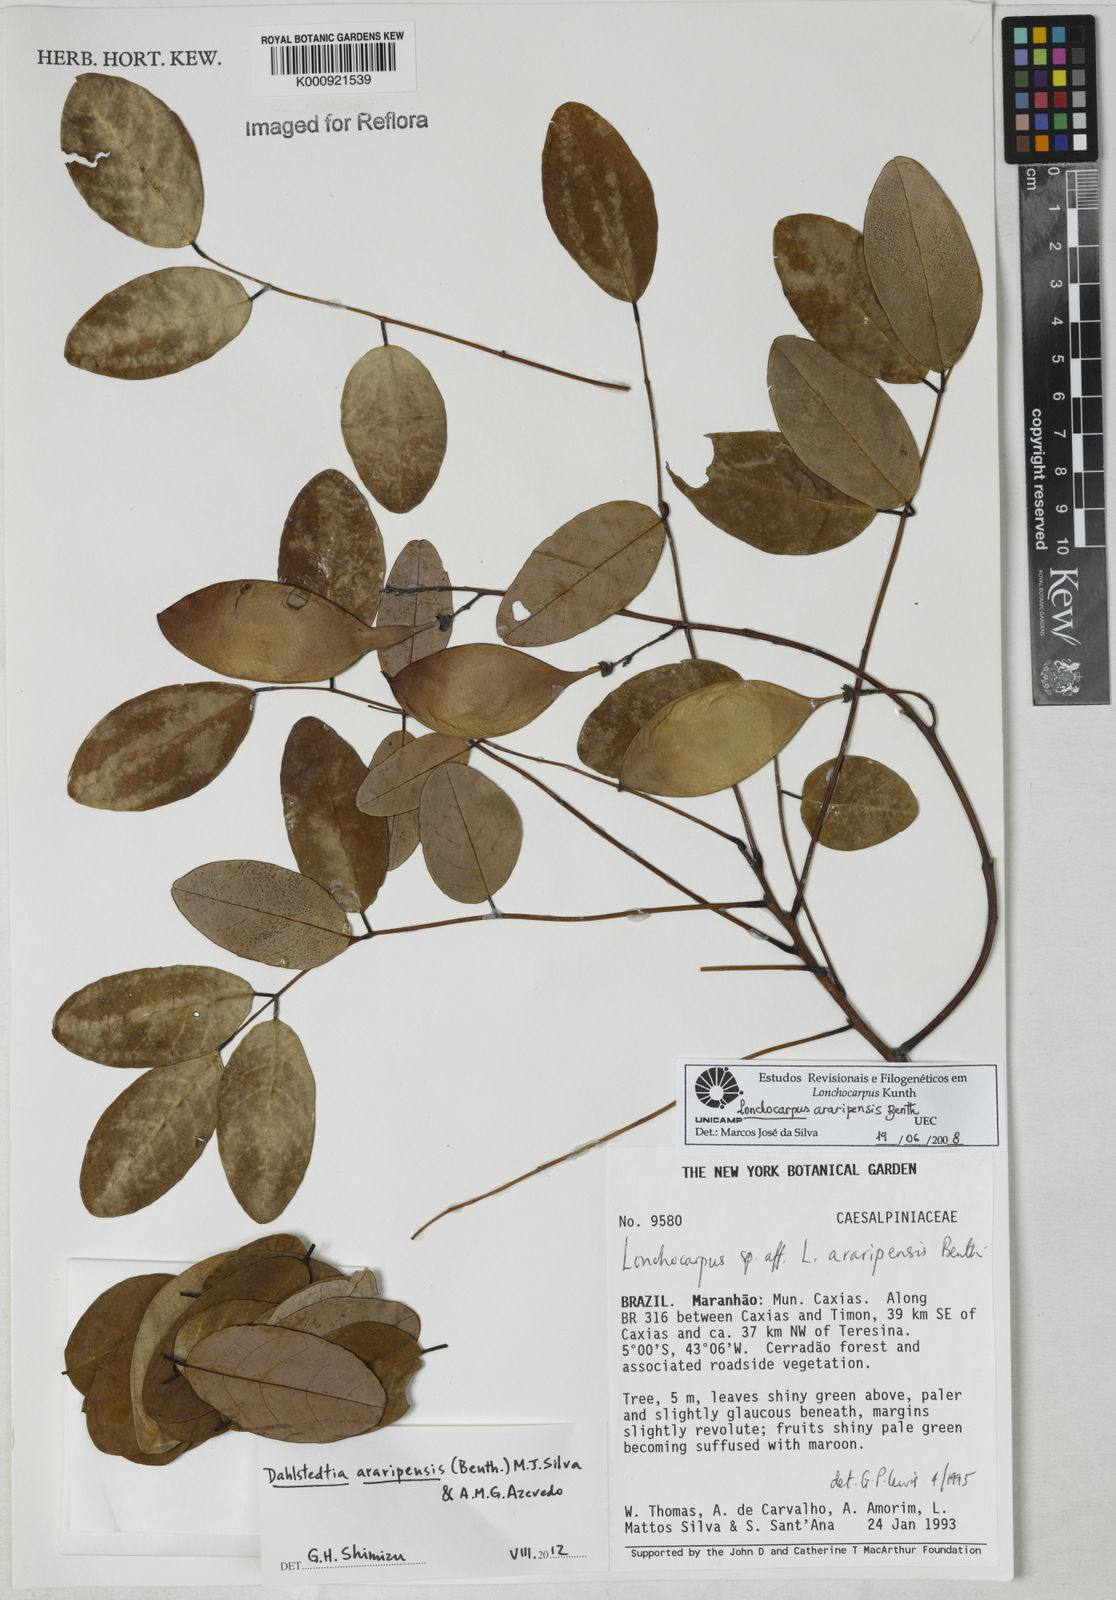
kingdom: Plantae
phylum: Tracheophyta
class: Magnoliopsida
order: Fabales
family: Fabaceae
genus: Dahlstedtia
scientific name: Dahlstedtia araripensis
